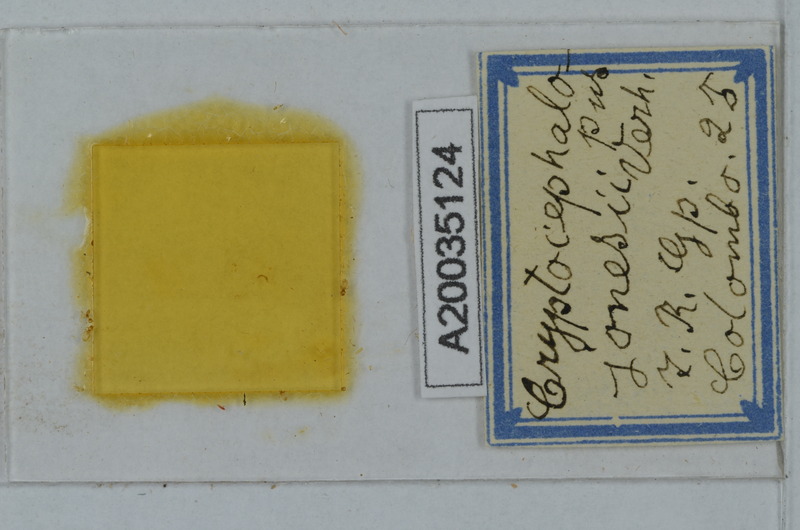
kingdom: Animalia
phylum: Arthropoda
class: Diplopoda
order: Polydesmida
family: Pyrgodesmidae
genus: Cryptocephalopus
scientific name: Cryptocephalopus jonesii
